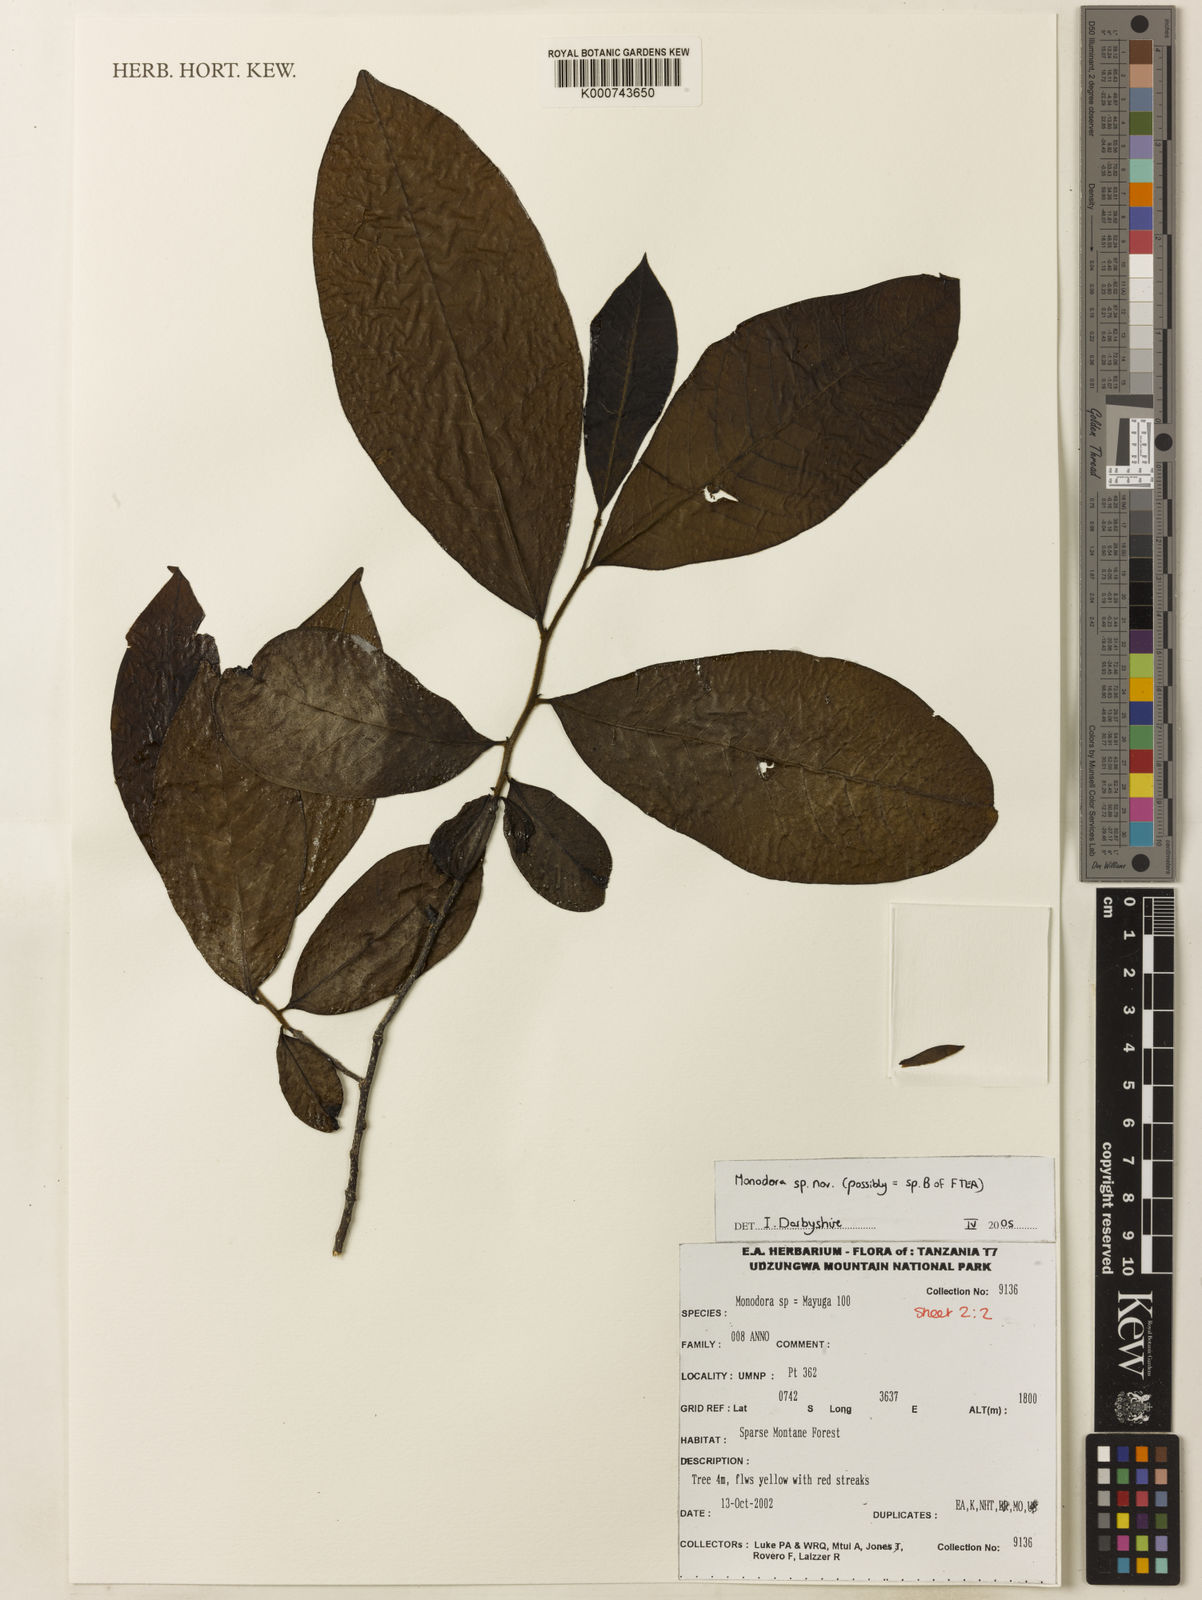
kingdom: Plantae
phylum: Tracheophyta
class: Magnoliopsida
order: Magnoliales
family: Annonaceae
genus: Monodora
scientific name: Monodora globiflora
